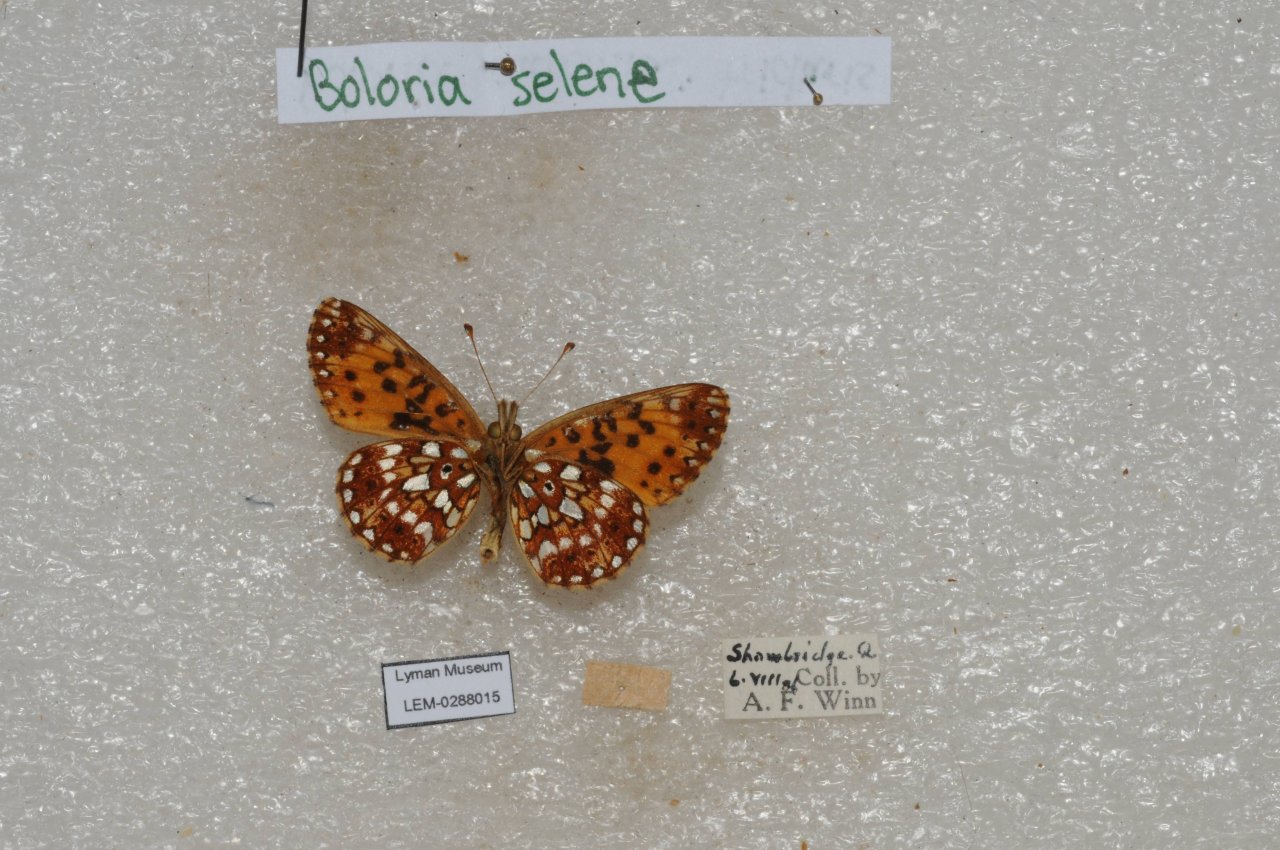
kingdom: Animalia
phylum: Arthropoda
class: Insecta
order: Lepidoptera
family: Nymphalidae
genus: Boloria
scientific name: Boloria selene
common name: Silver-bordered Fritillary
